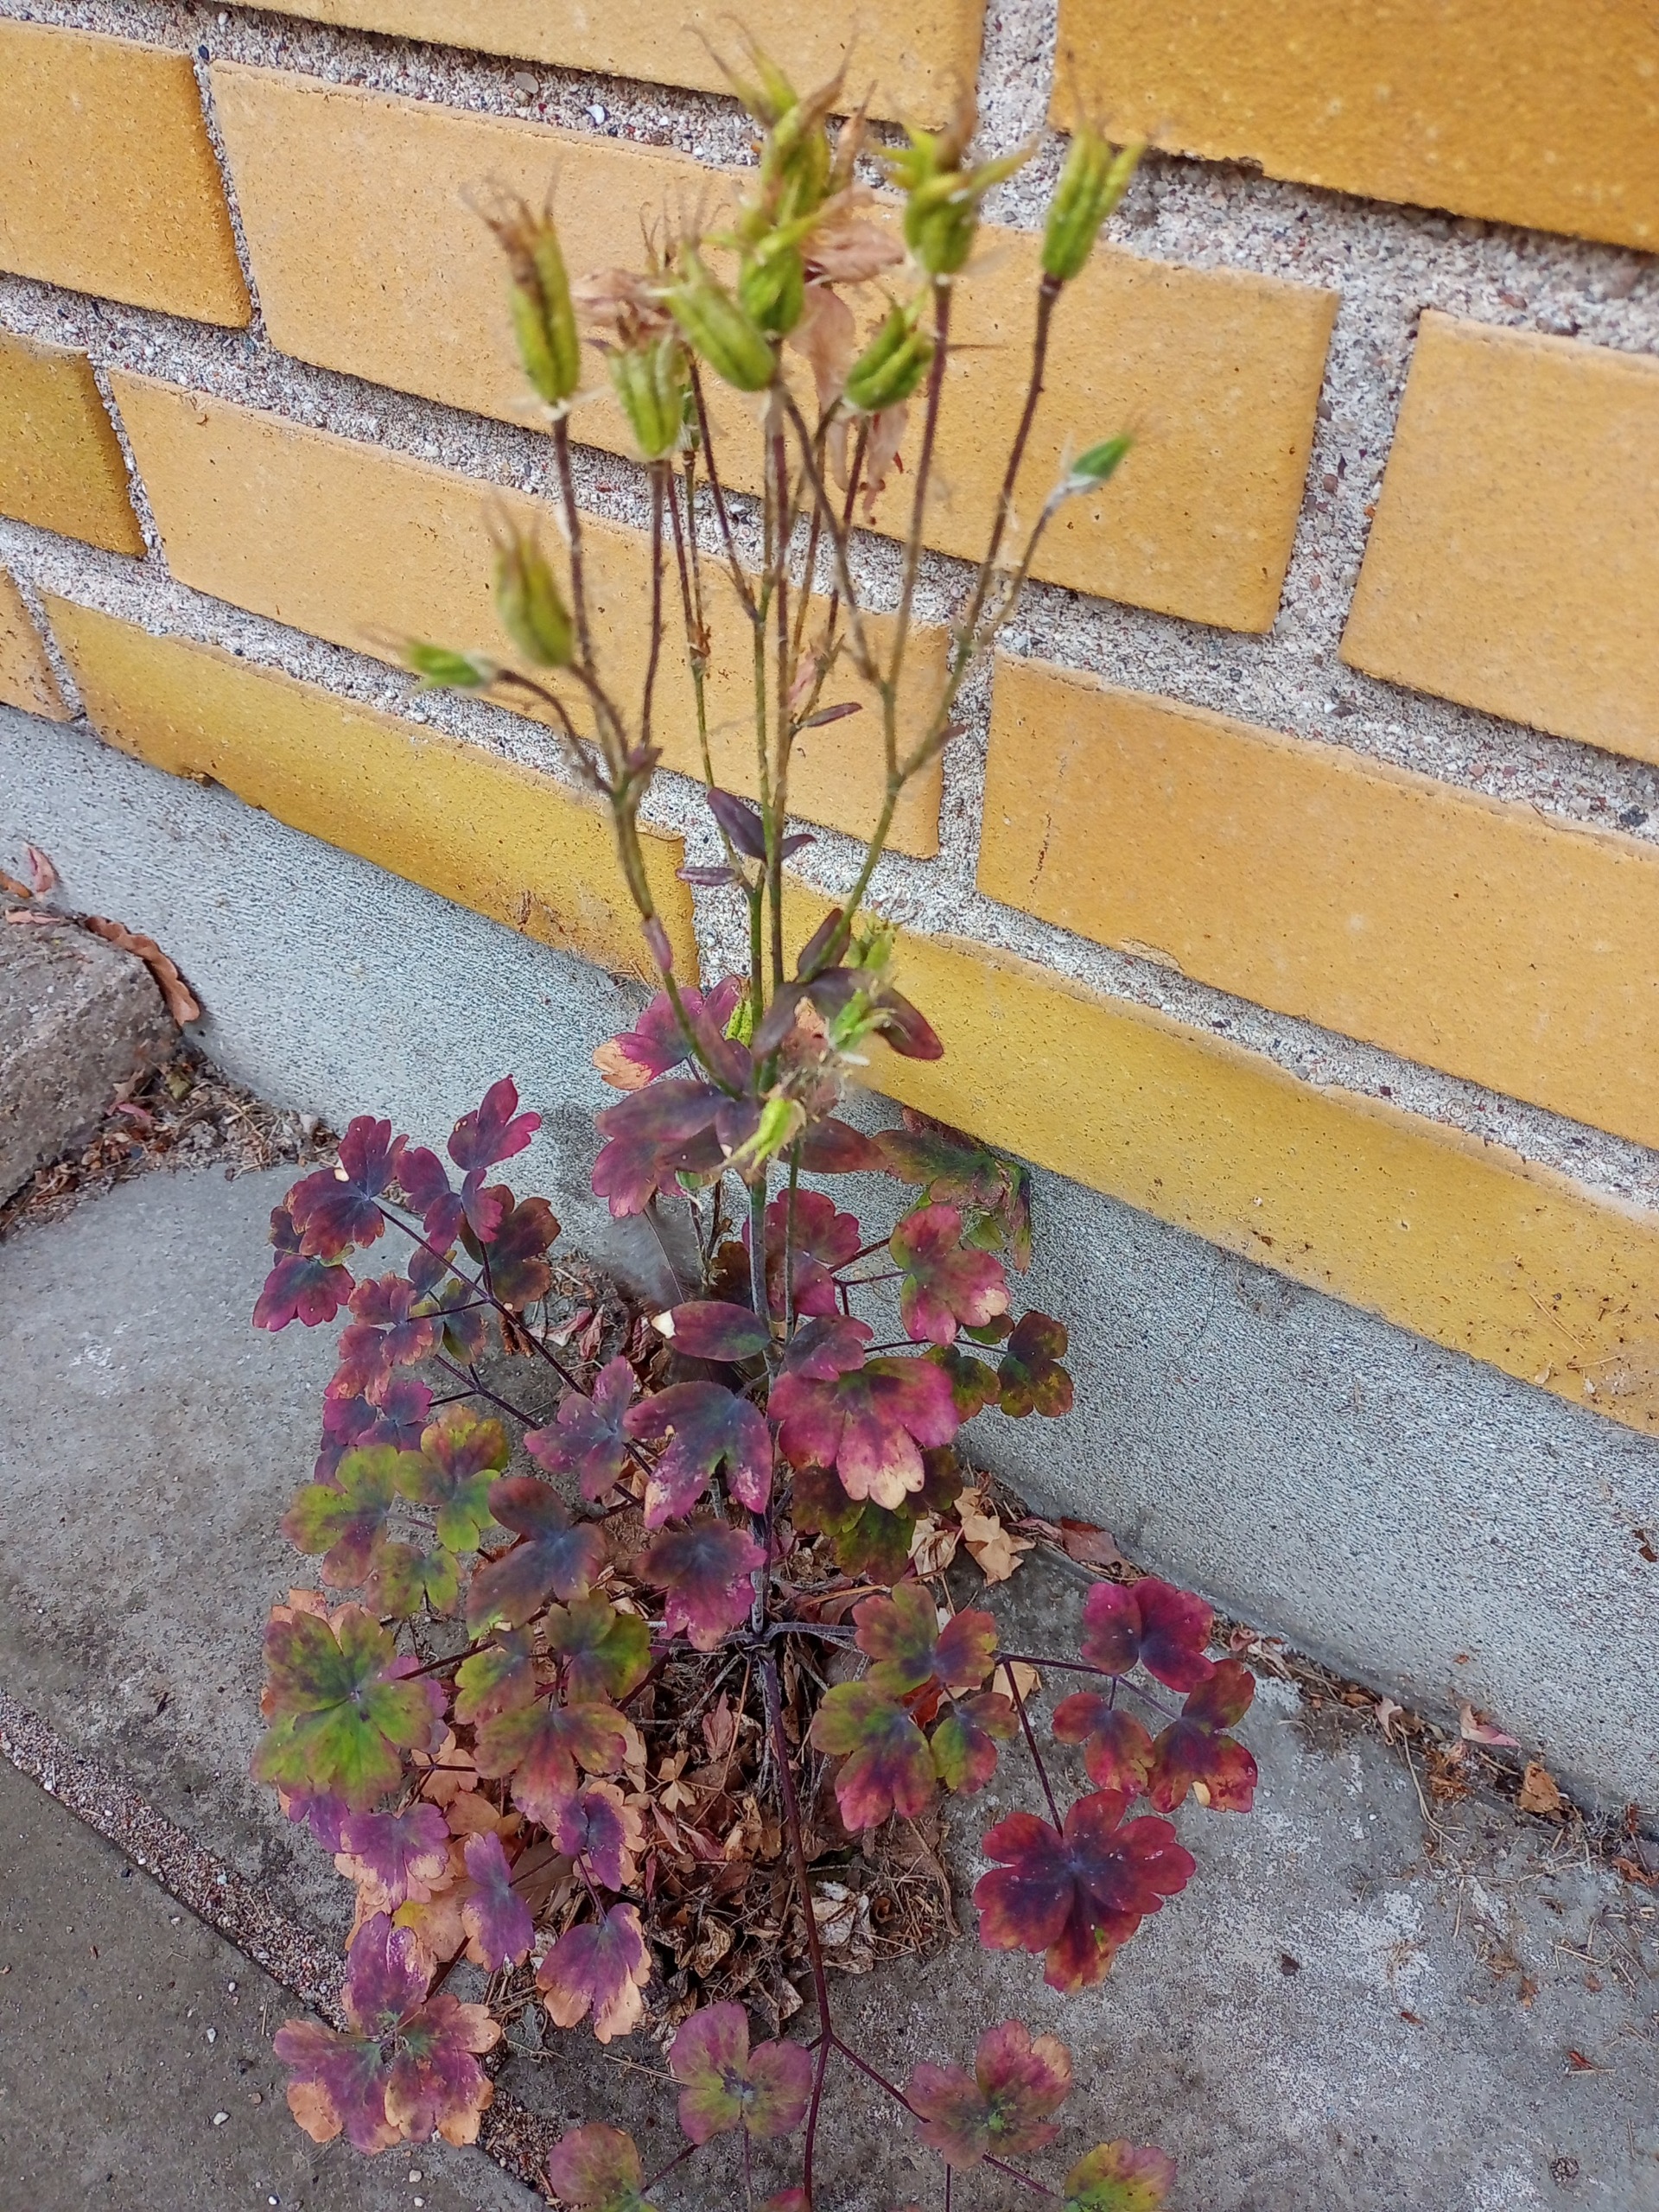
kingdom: Plantae
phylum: Tracheophyta
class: Magnoliopsida
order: Ranunculales
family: Ranunculaceae
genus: Aquilegia
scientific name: Aquilegia vulgaris
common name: Akeleje
